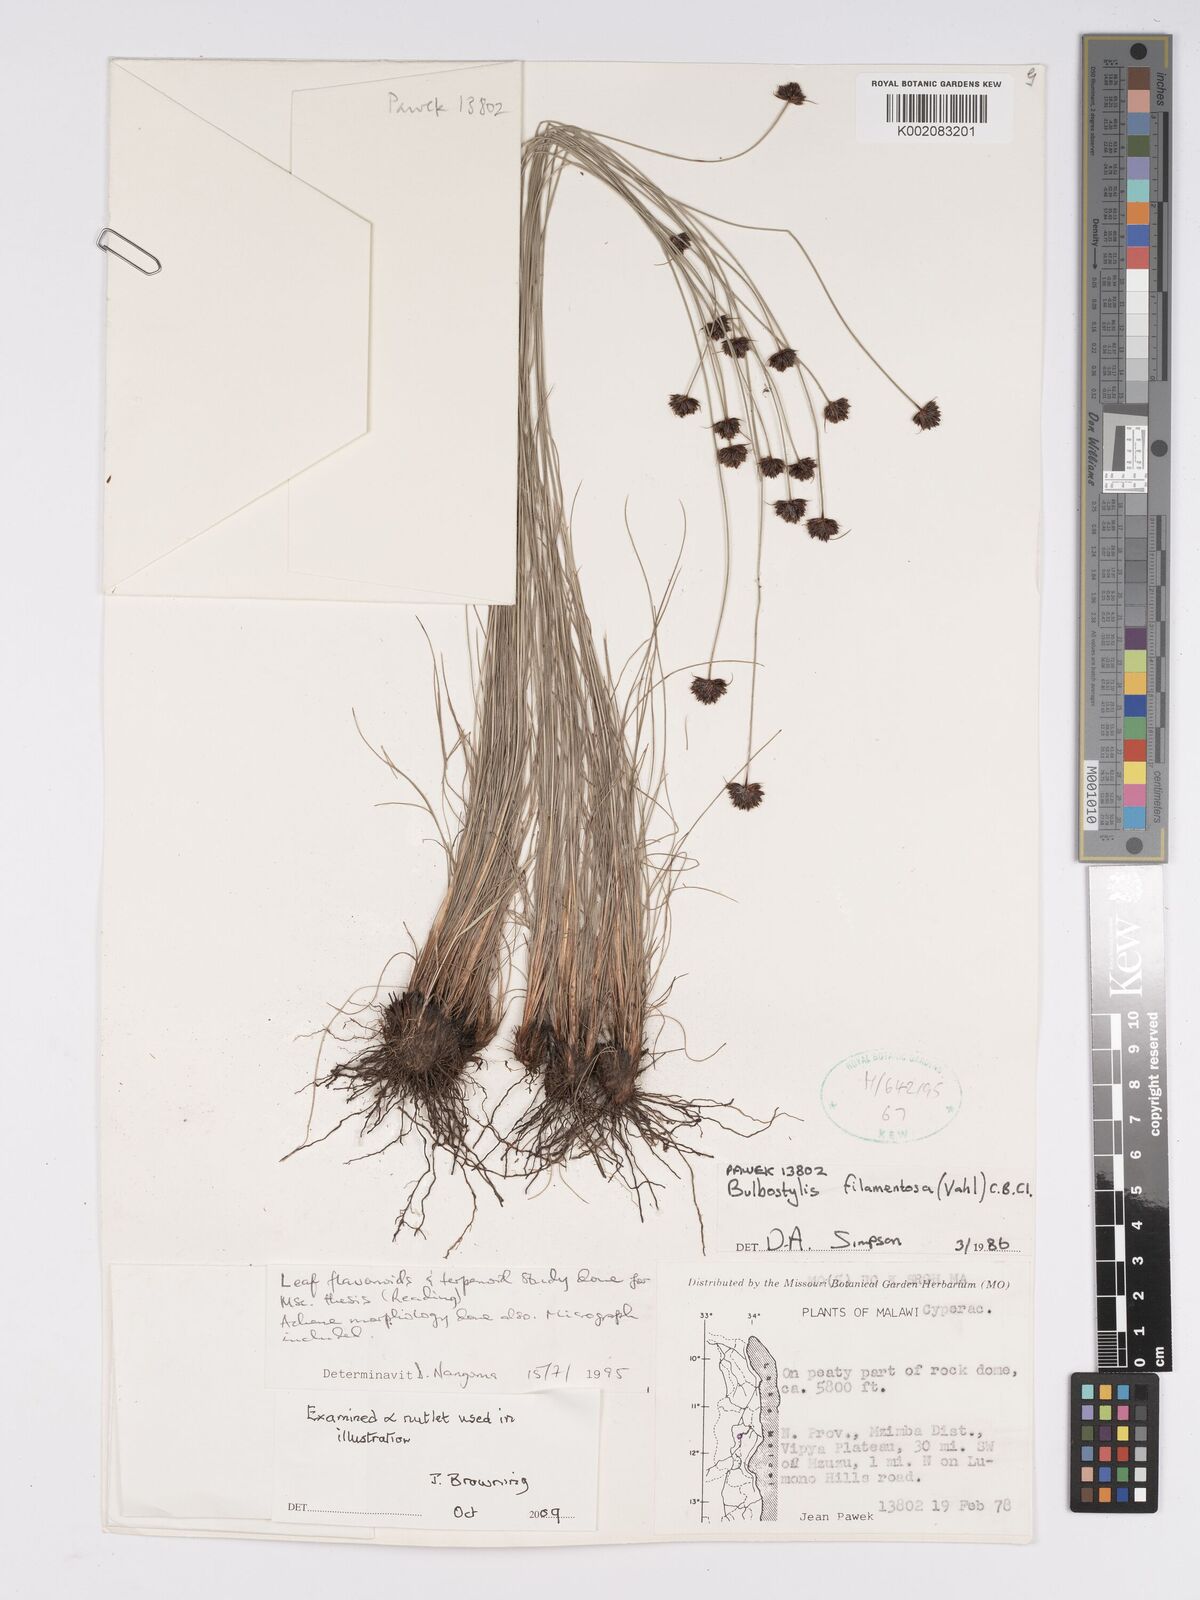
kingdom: Plantae
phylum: Tracheophyta
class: Liliopsida
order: Poales
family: Cyperaceae
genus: Bulbostylis
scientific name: Bulbostylis filamentosa
